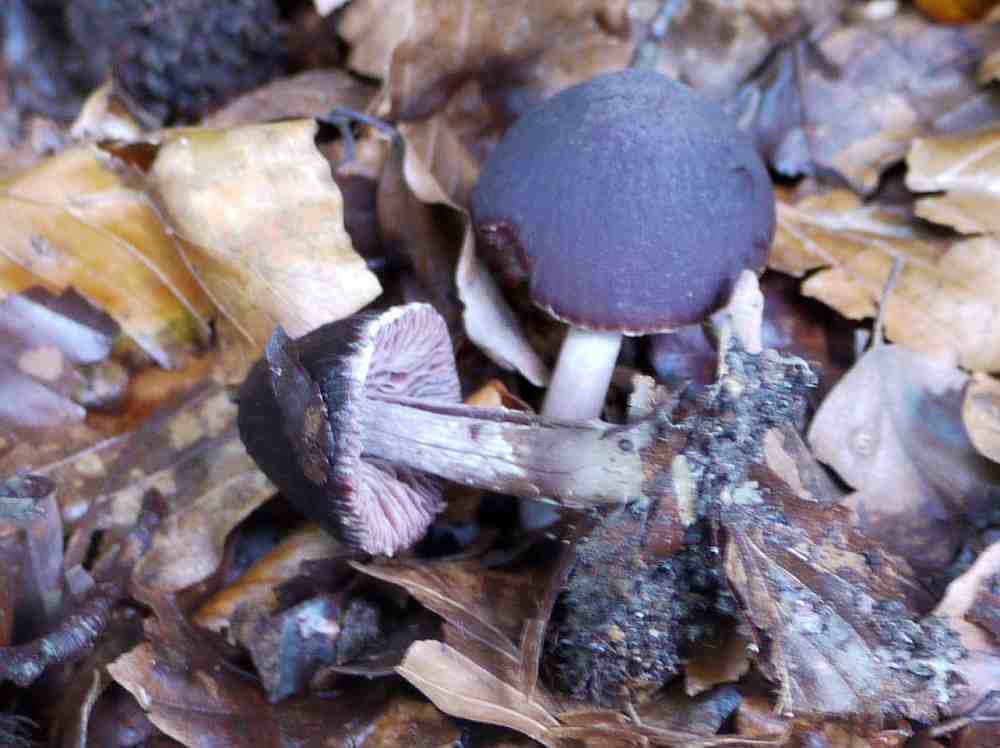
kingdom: Fungi
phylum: Basidiomycota
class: Agaricomycetes
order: Agaricales
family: Psathyrellaceae
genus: Psathyrella
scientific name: Psathyrella bipellis
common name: vinrød mørkhat
